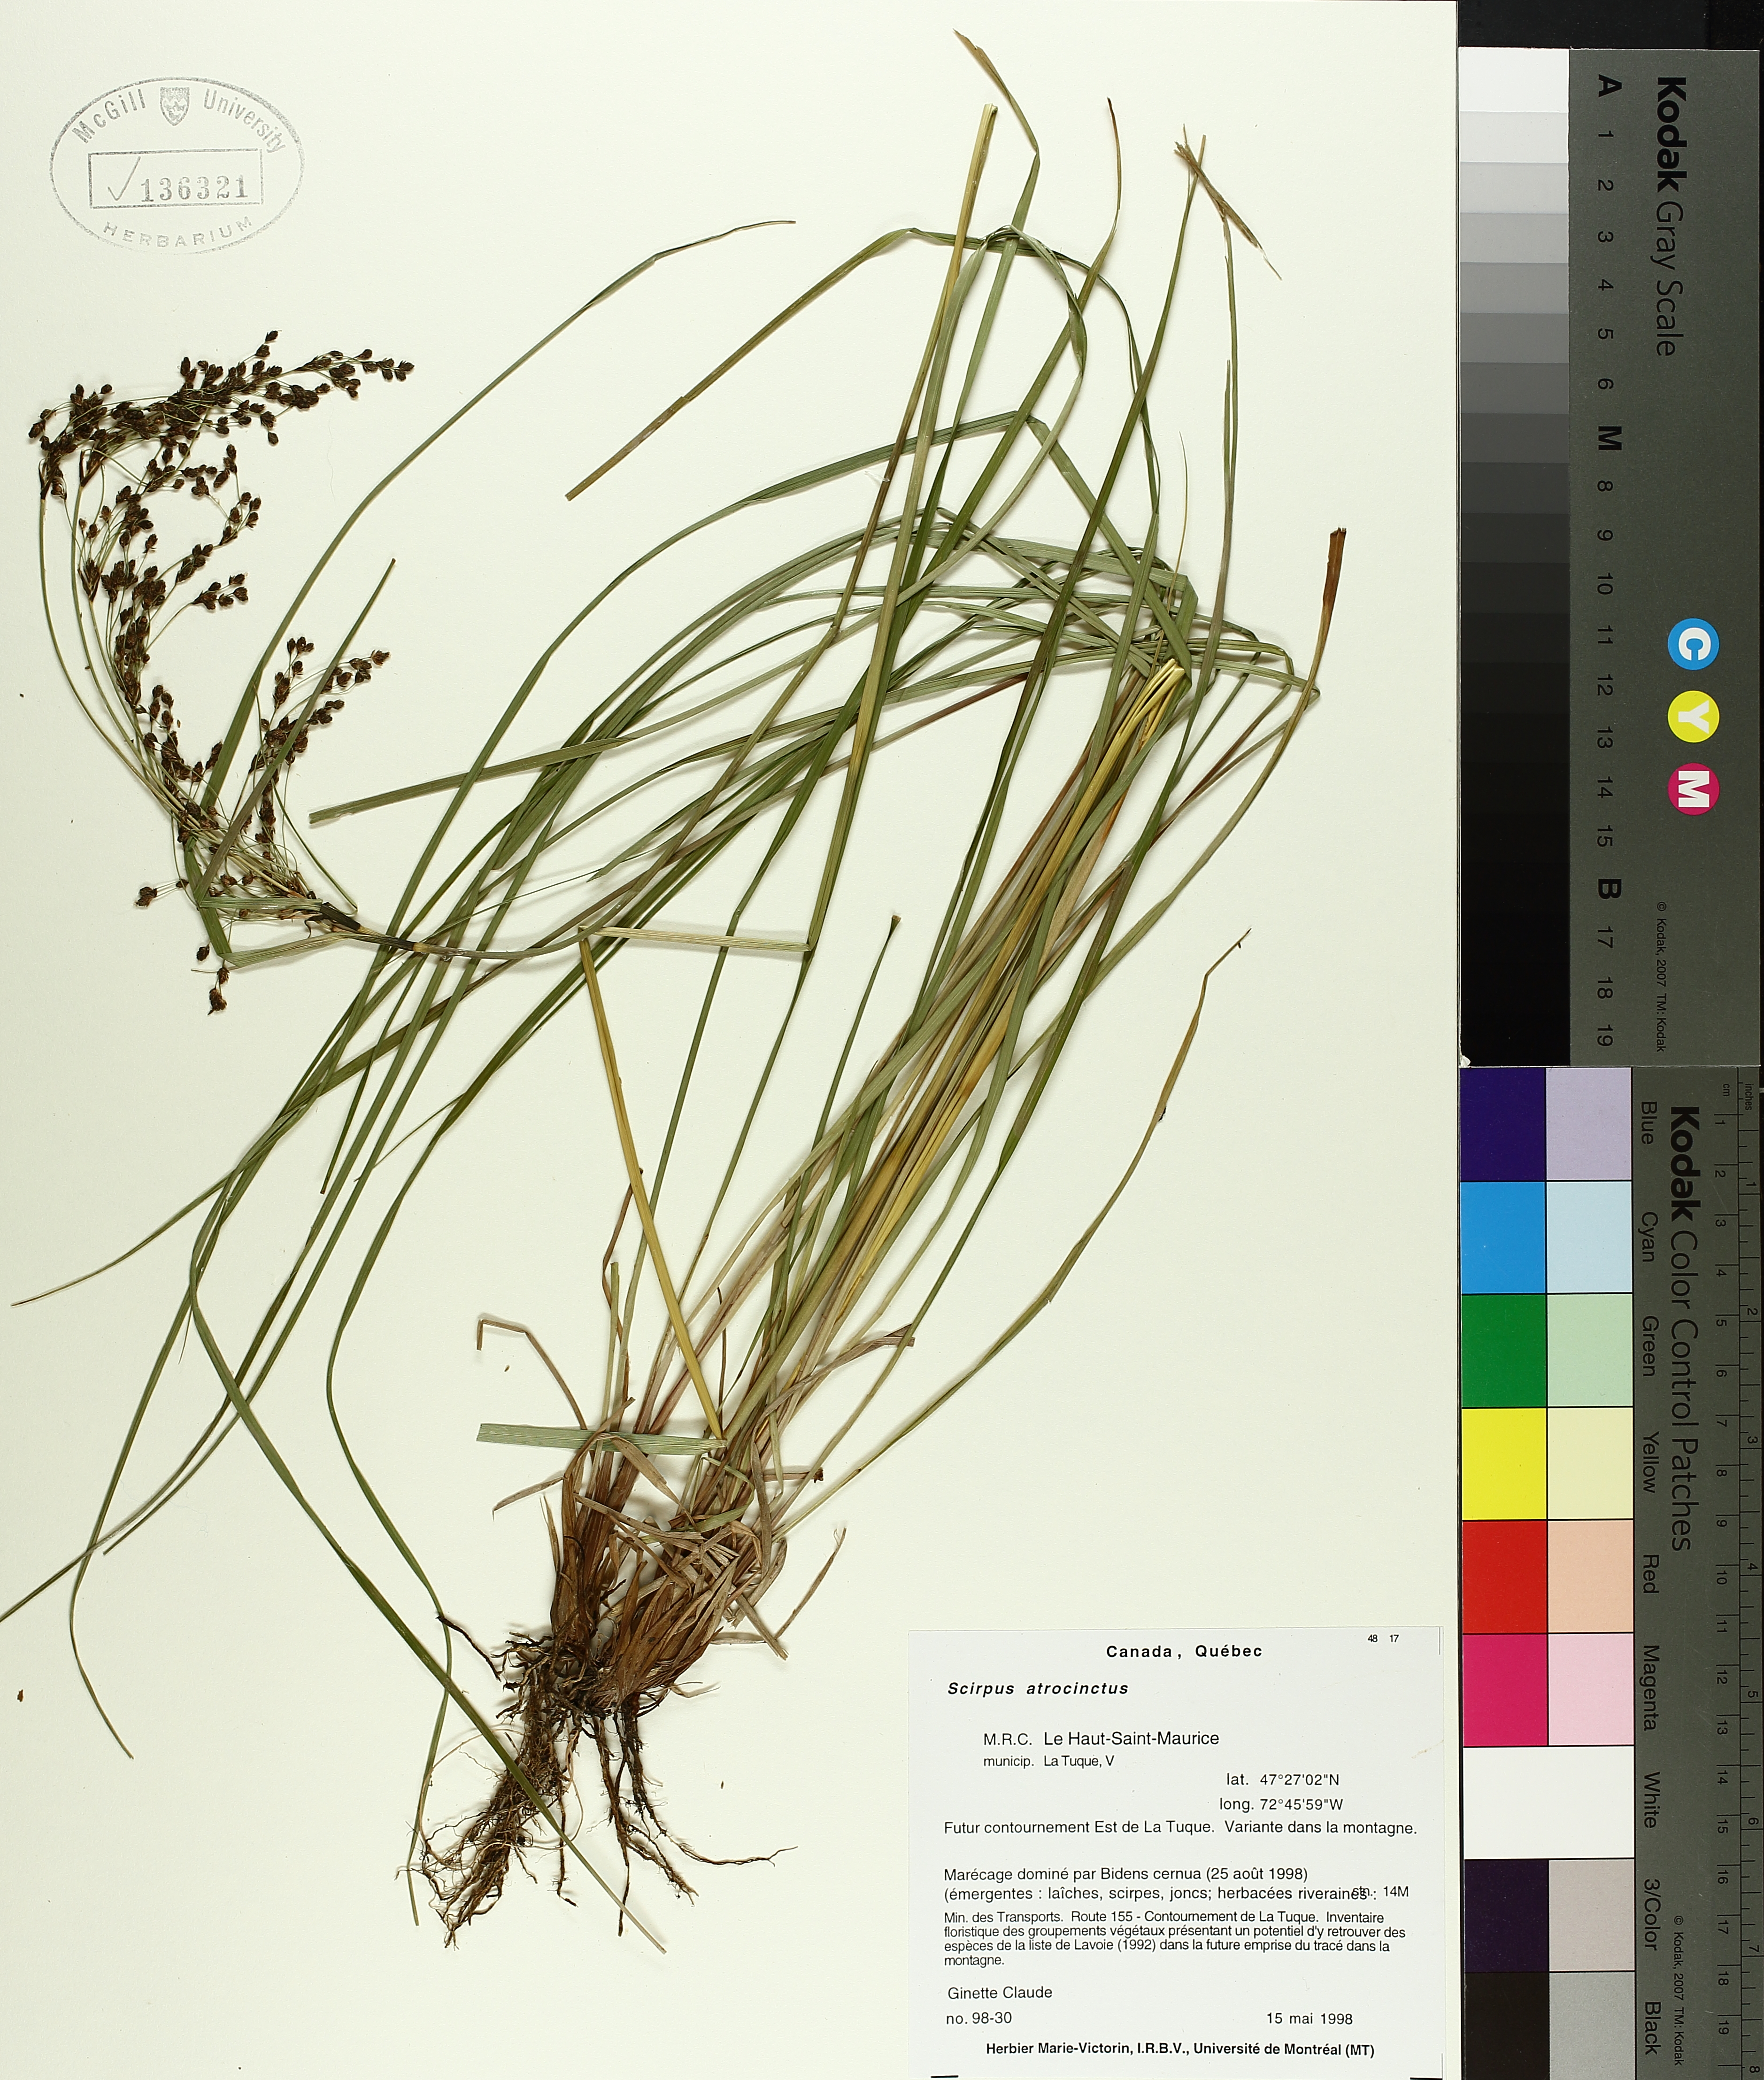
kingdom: Plantae
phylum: Tracheophyta
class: Liliopsida
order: Poales
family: Cyperaceae
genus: Scirpus
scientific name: Scirpus atrocinctus
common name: Black-girdled bulrush
